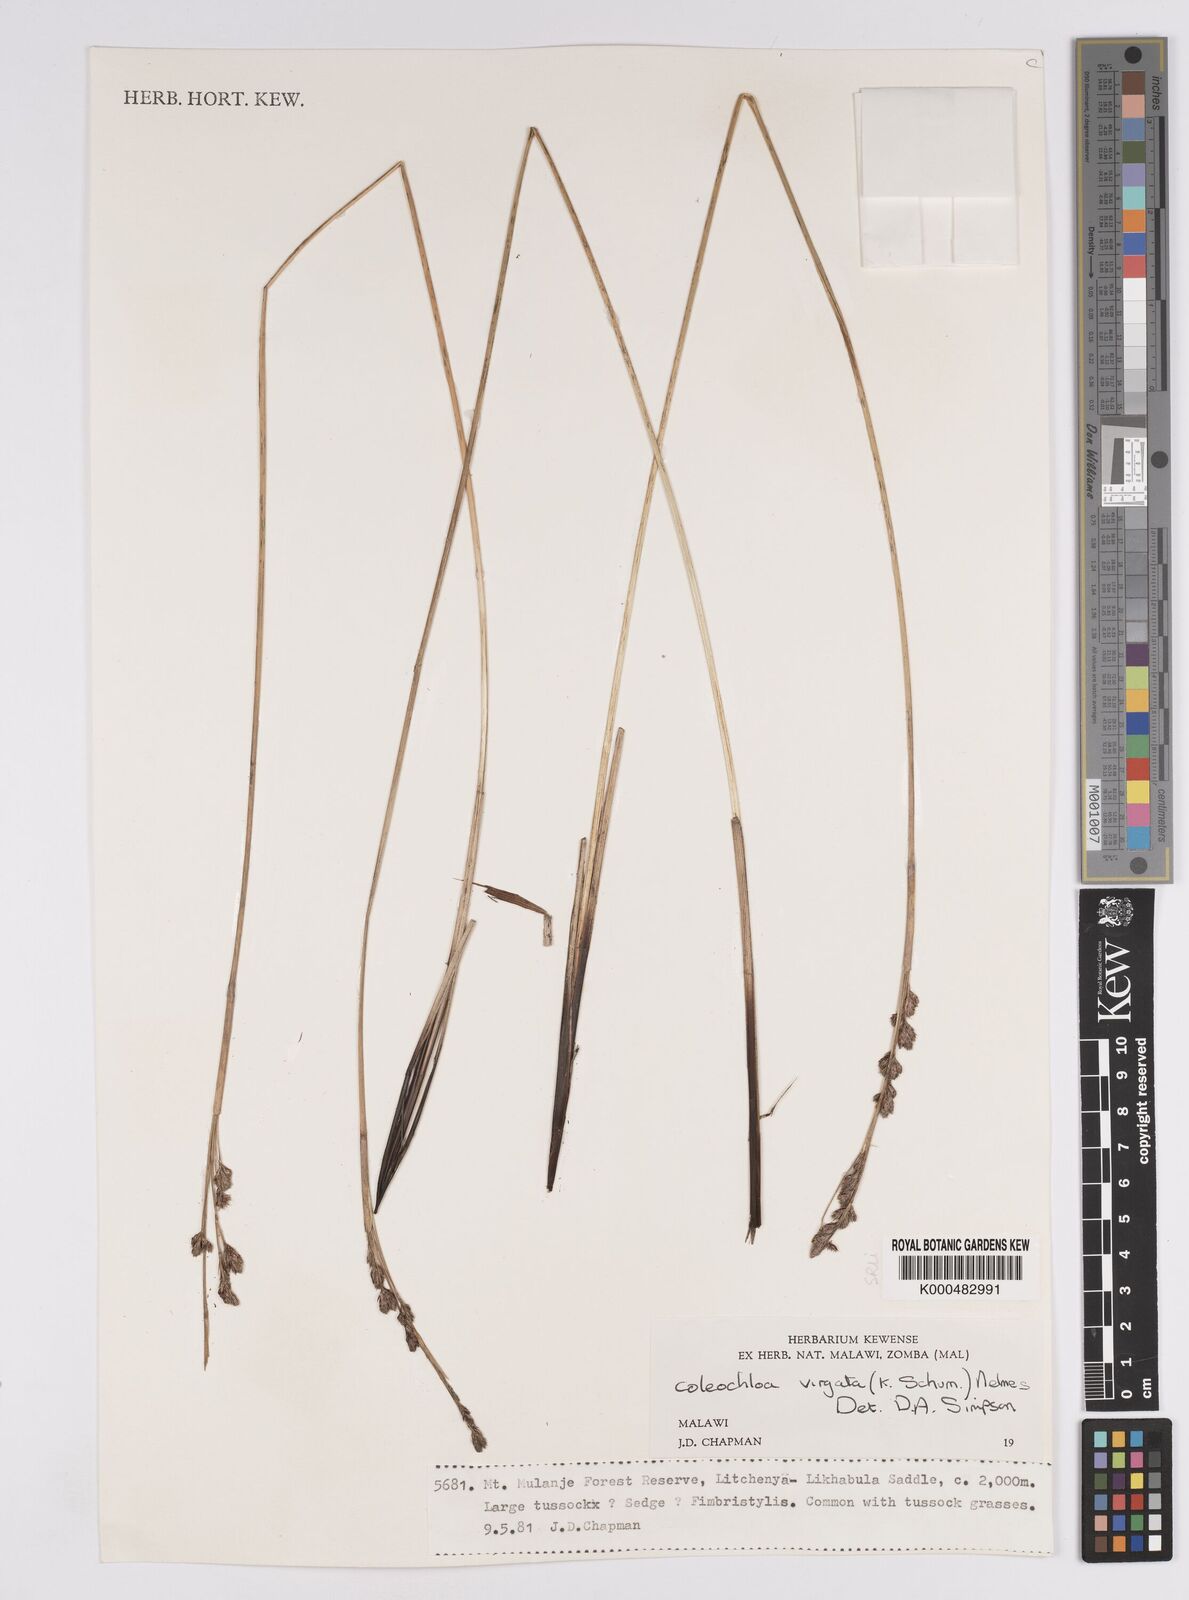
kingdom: Plantae
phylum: Tracheophyta
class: Liliopsida
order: Poales
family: Cyperaceae
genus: Coleochloa
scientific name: Coleochloa virgata
